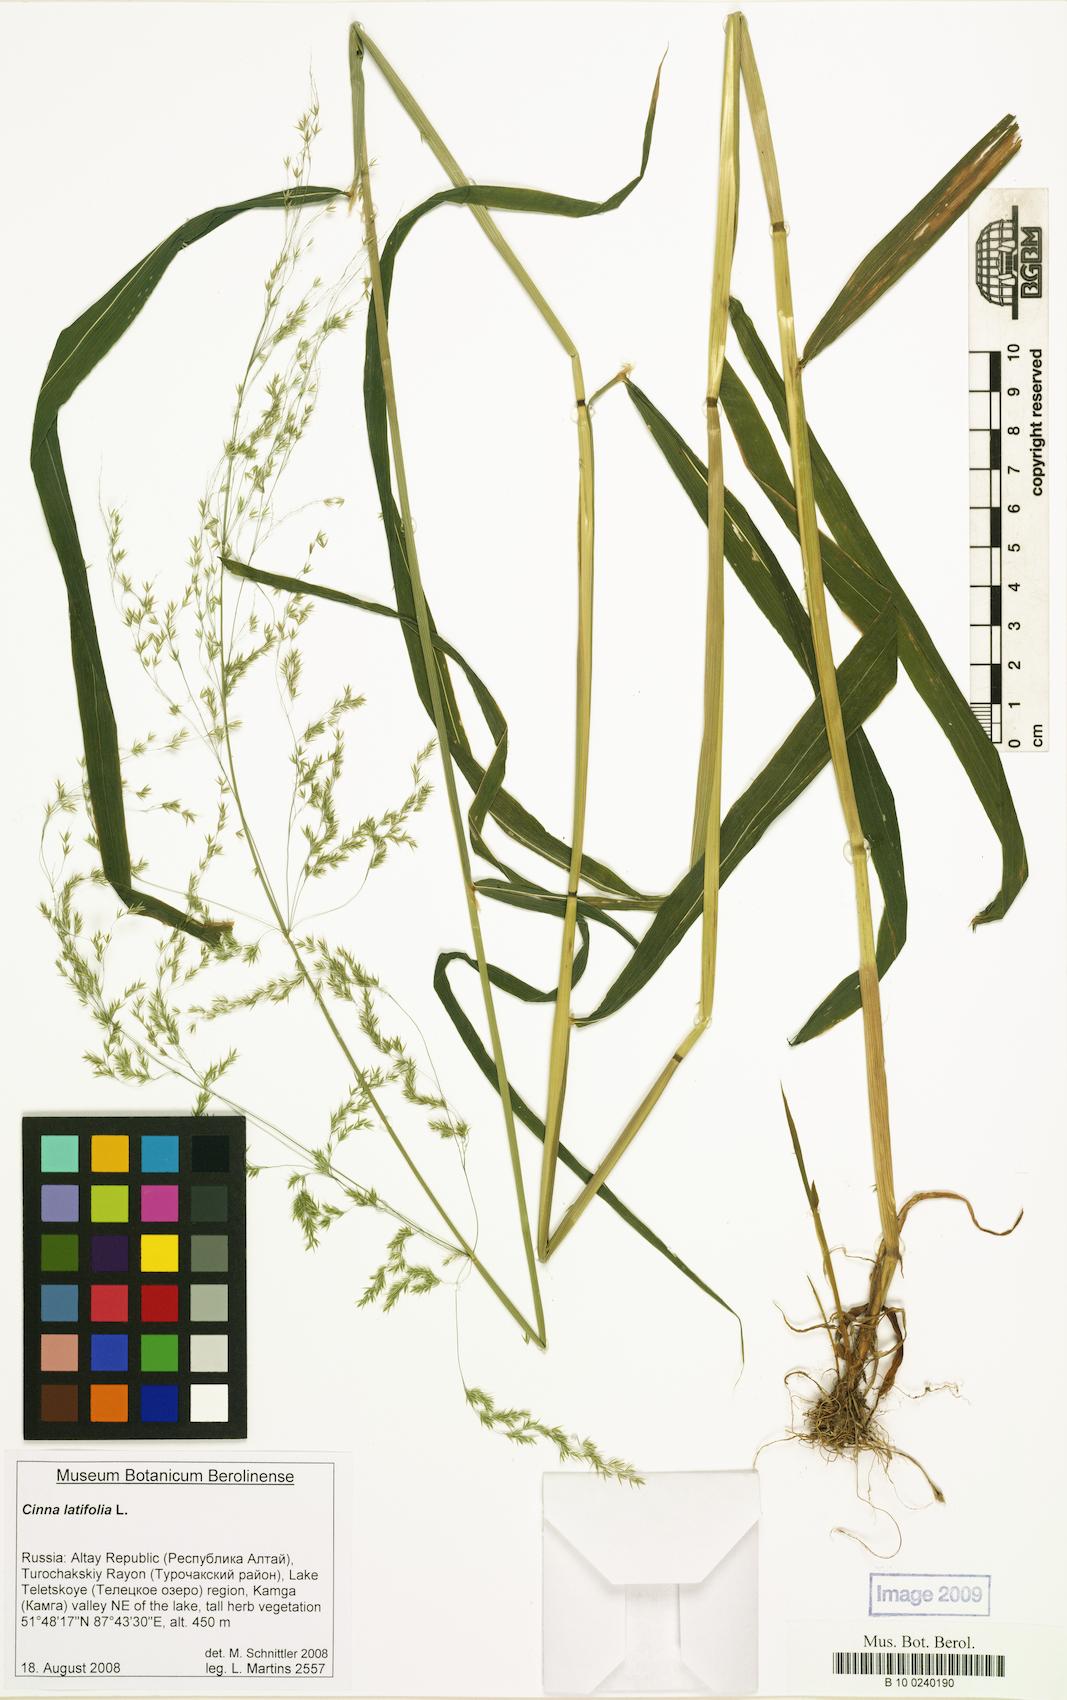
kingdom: Plantae
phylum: Tracheophyta
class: Liliopsida
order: Poales
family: Poaceae
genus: Cinna
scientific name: Cinna latifolia
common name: Drooping woodreed
